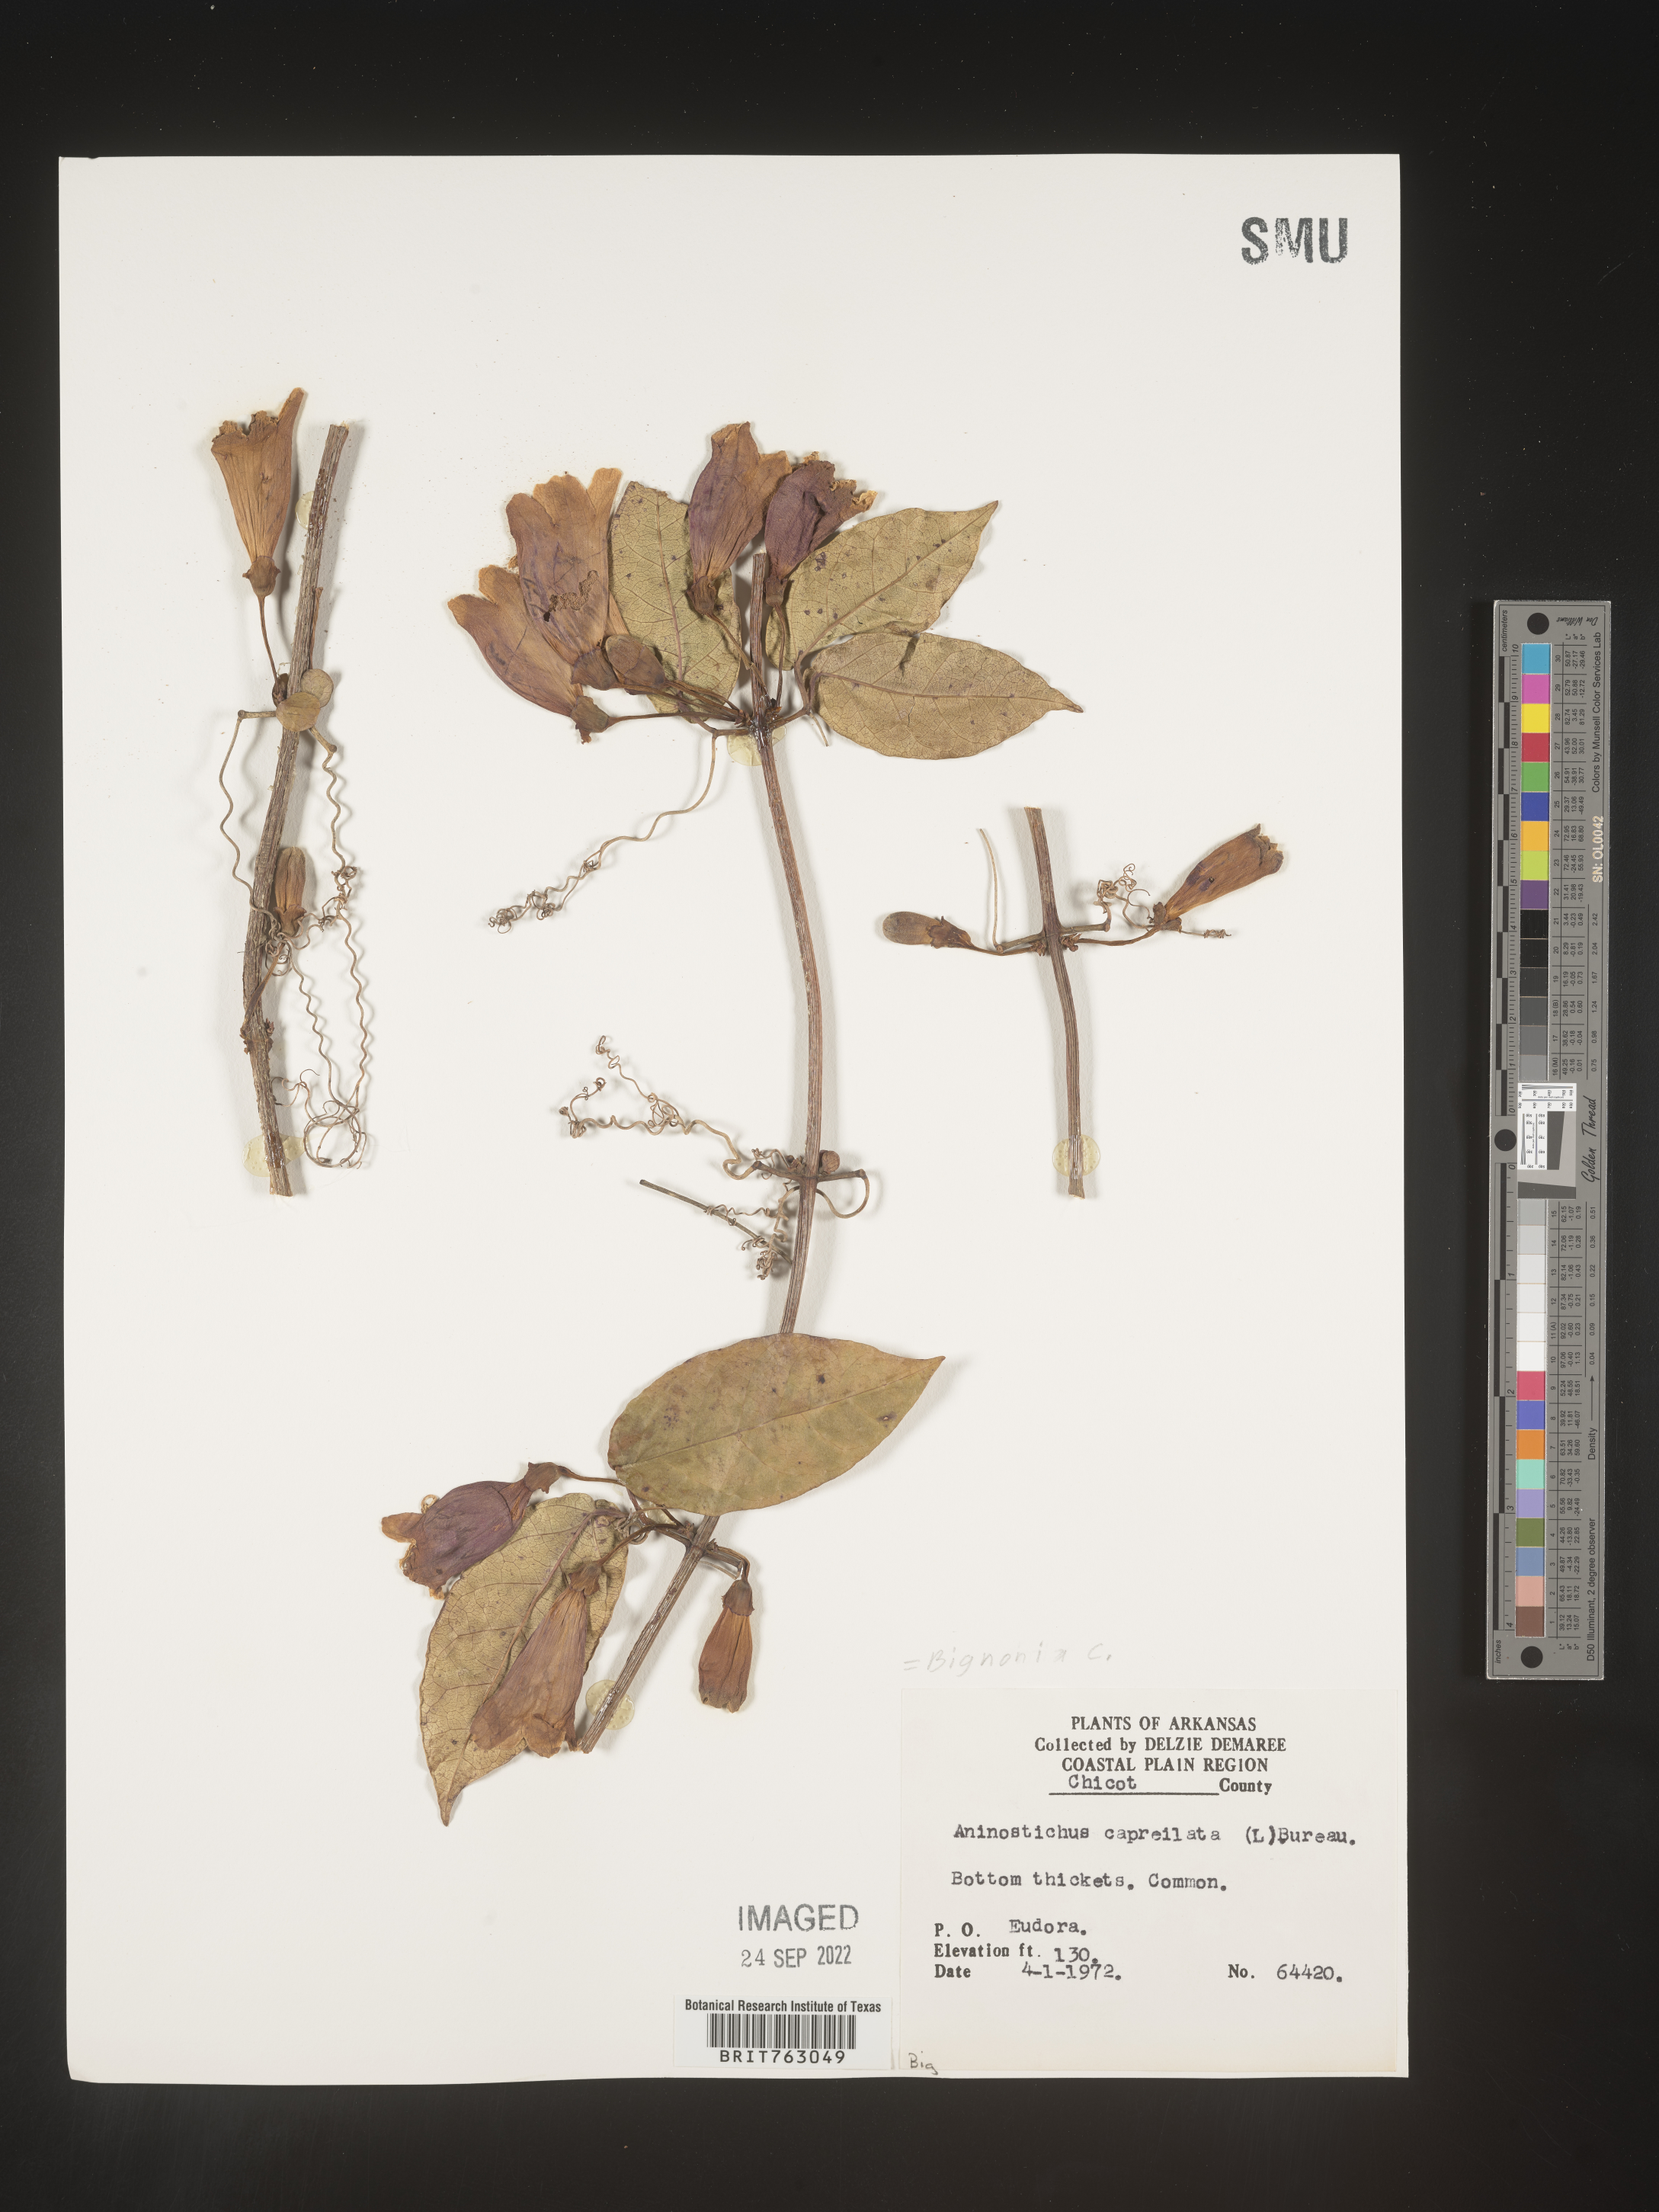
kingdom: Plantae
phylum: Tracheophyta
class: Magnoliopsida
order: Lamiales
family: Bignoniaceae
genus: Bignonia
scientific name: Bignonia capreolata
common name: Crossvine
